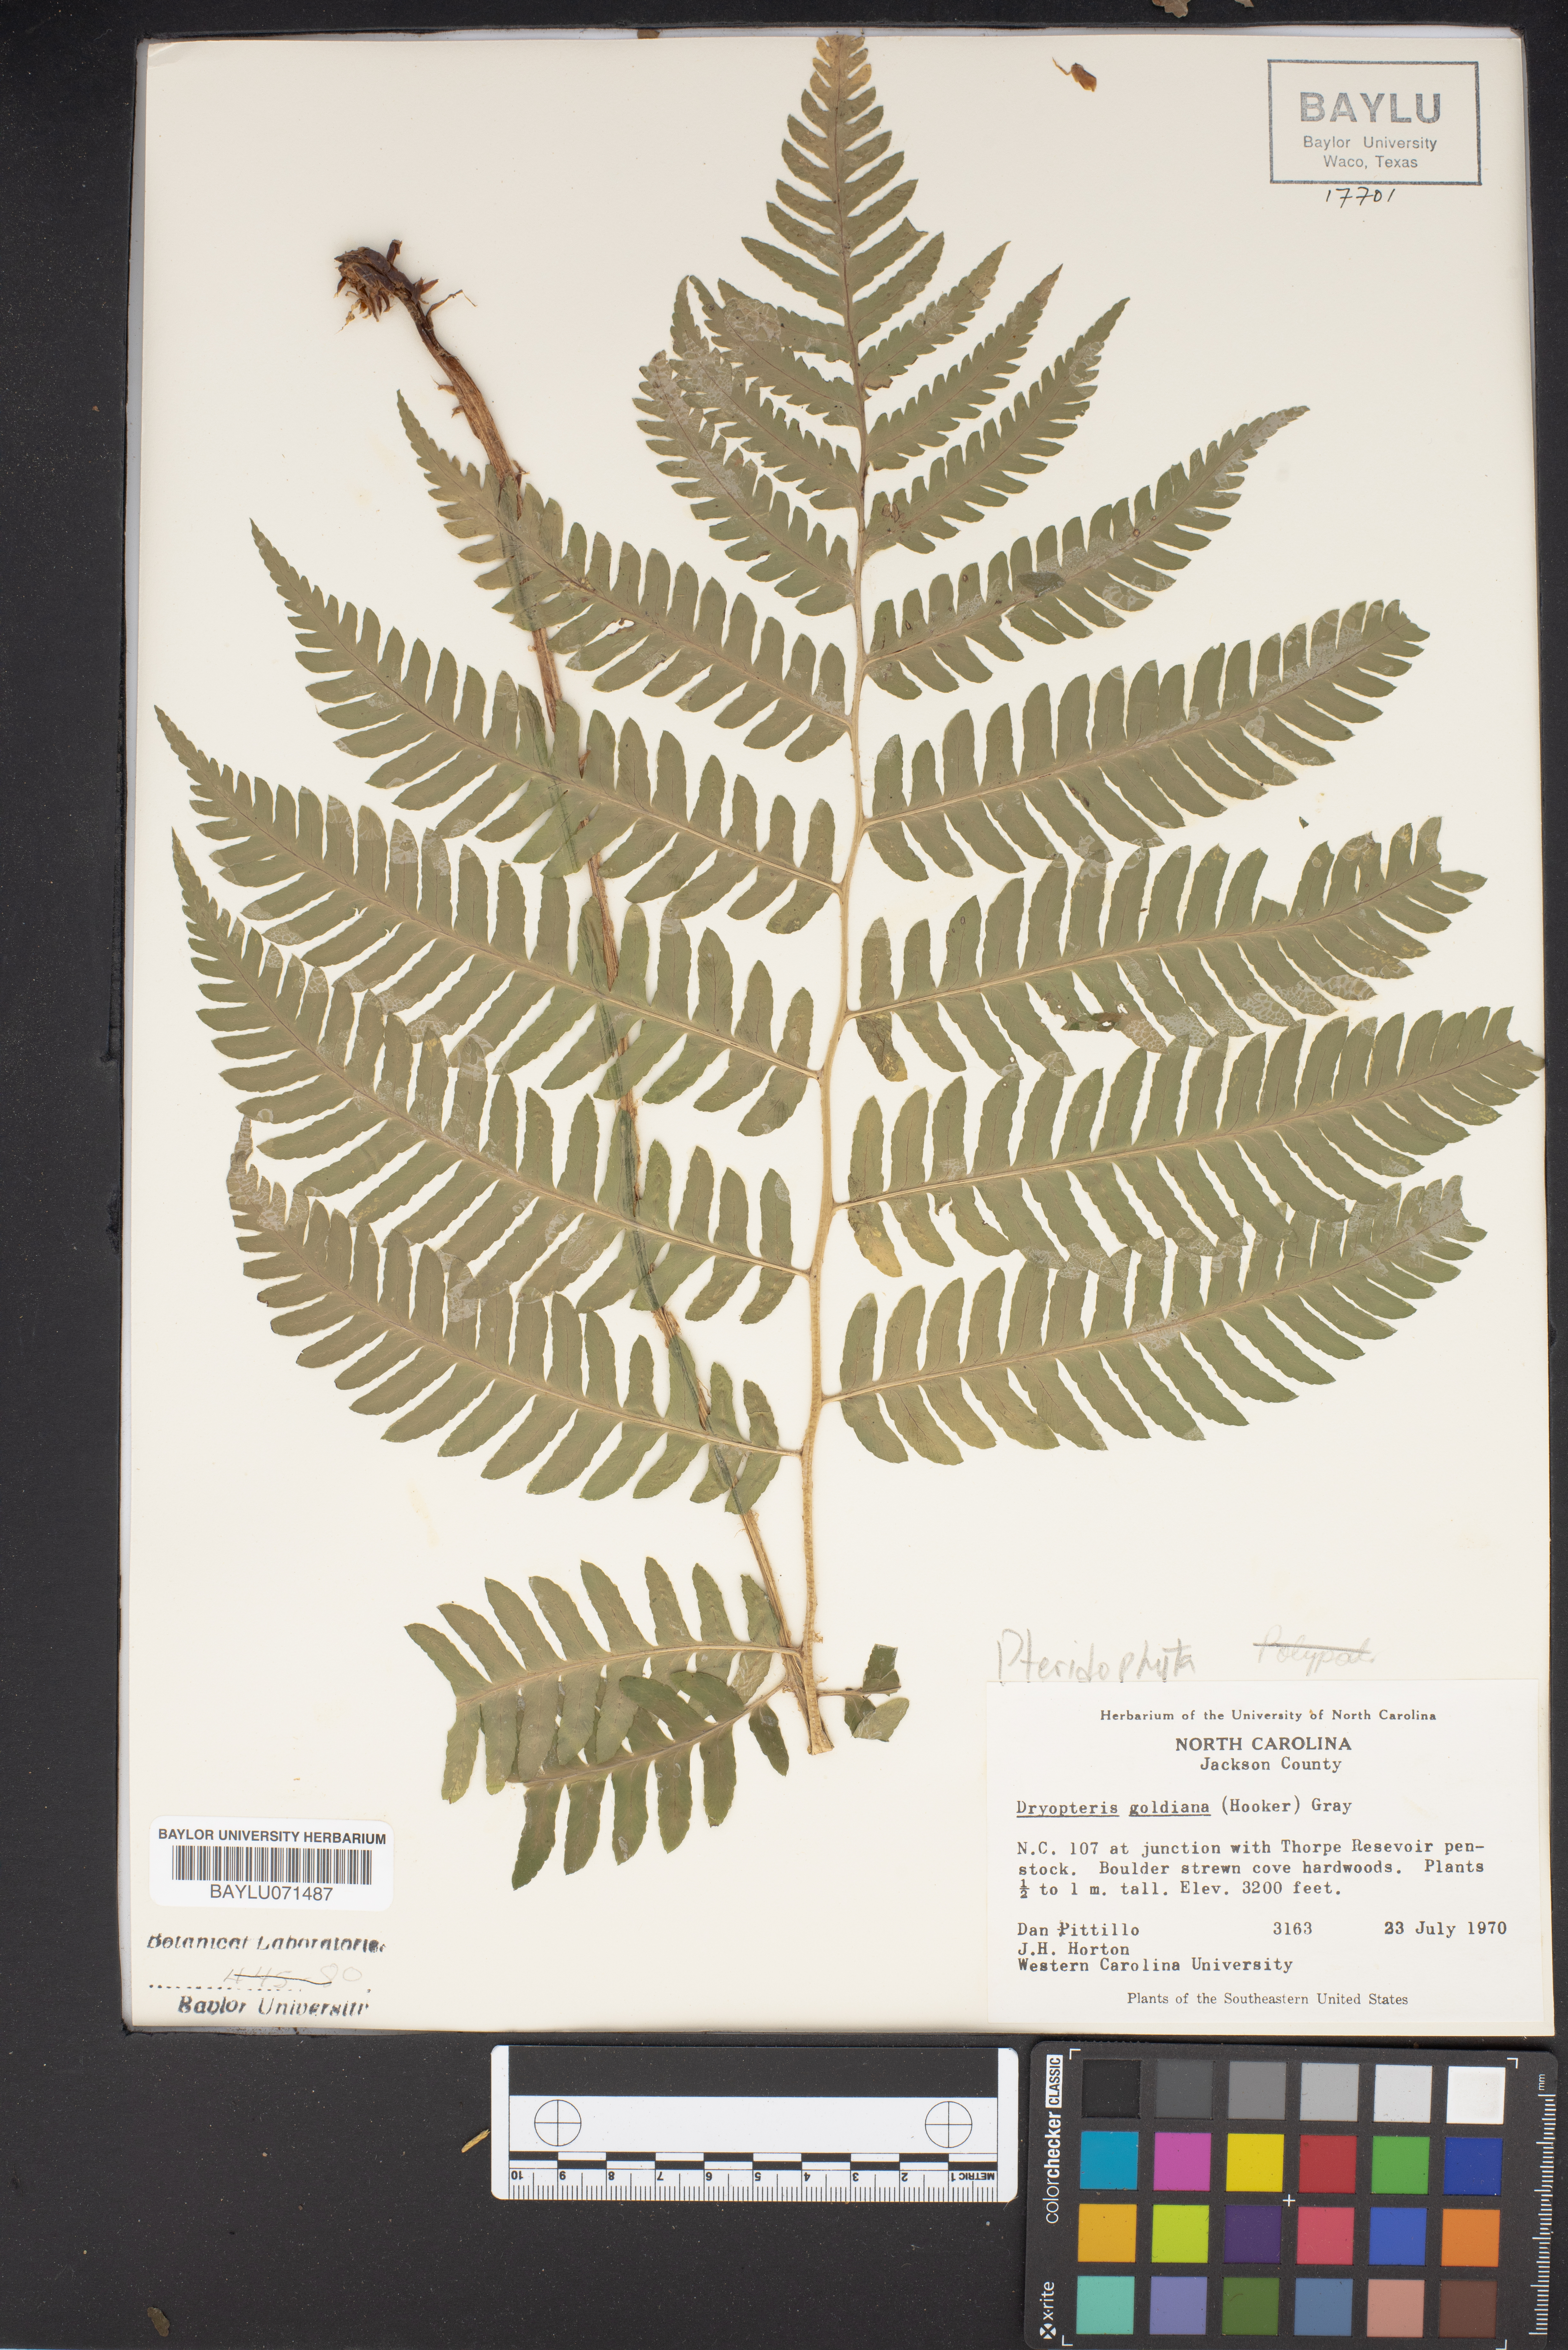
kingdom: Plantae
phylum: Tracheophyta
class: Polypodiopsida
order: Polypodiales
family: Dryopteridaceae
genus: Dryopteris
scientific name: Dryopteris goeldiana
